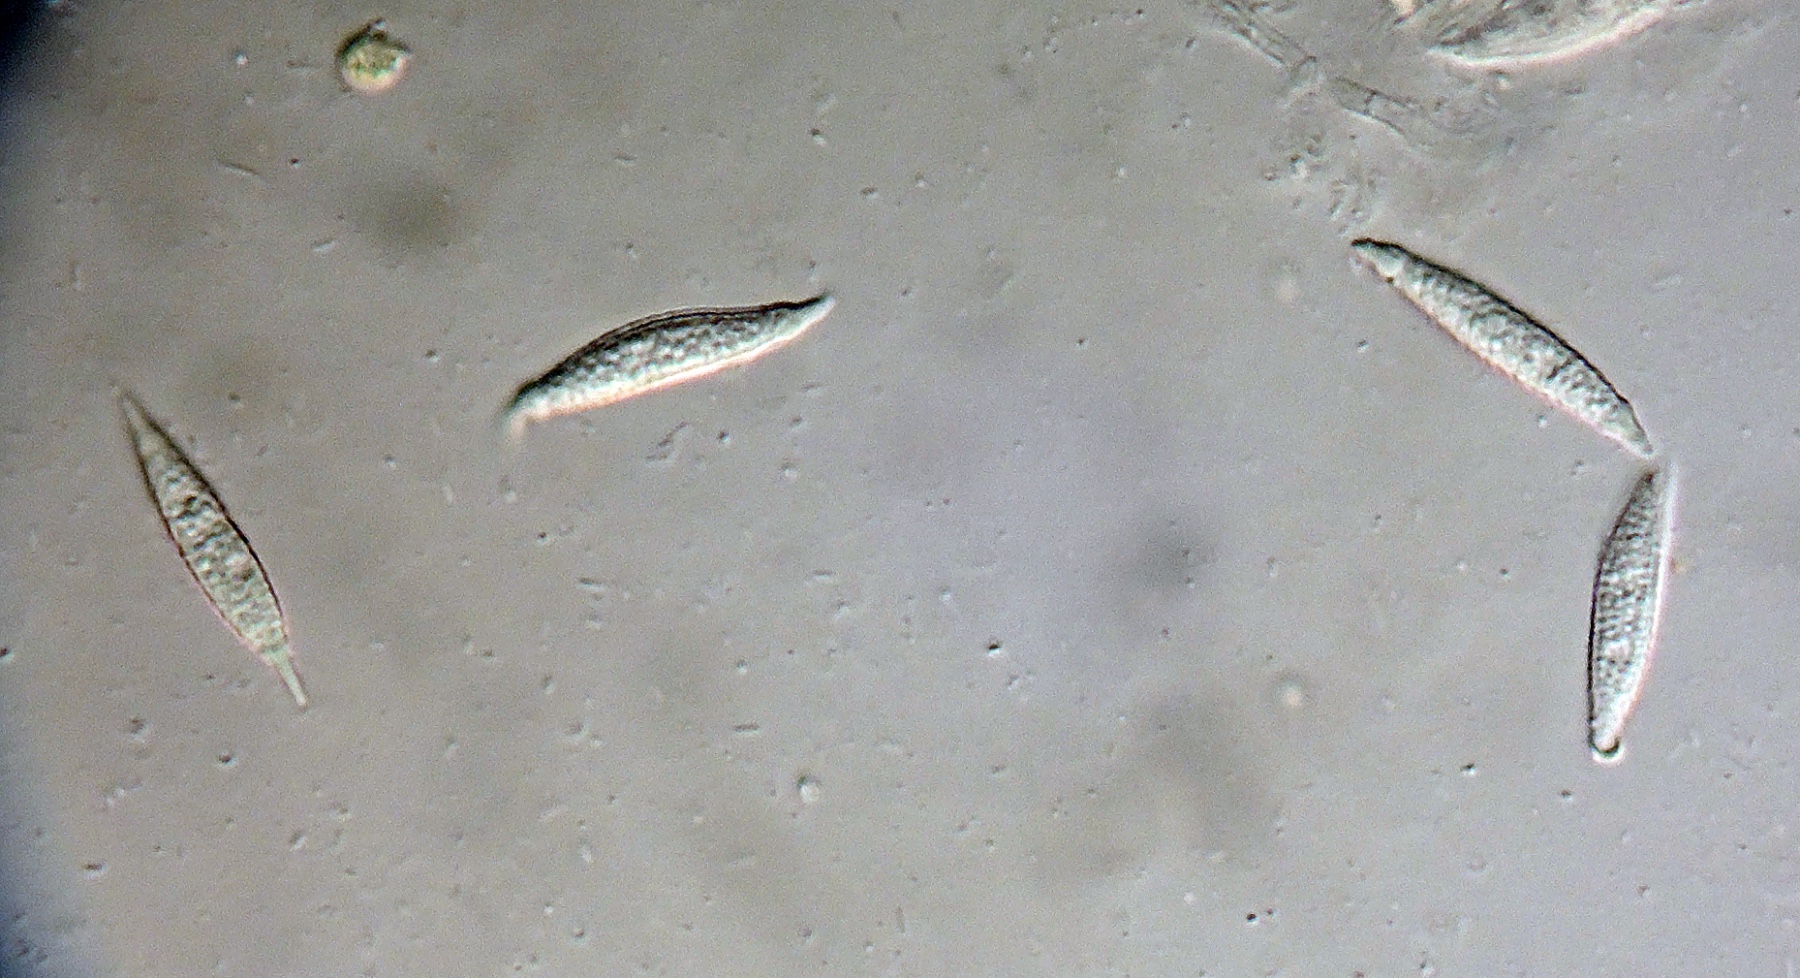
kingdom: Fungi
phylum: Ascomycota
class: Sordariomycetes
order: Hypocreales
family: Hypocreaceae
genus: Hypomyces
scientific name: Hypomyces
